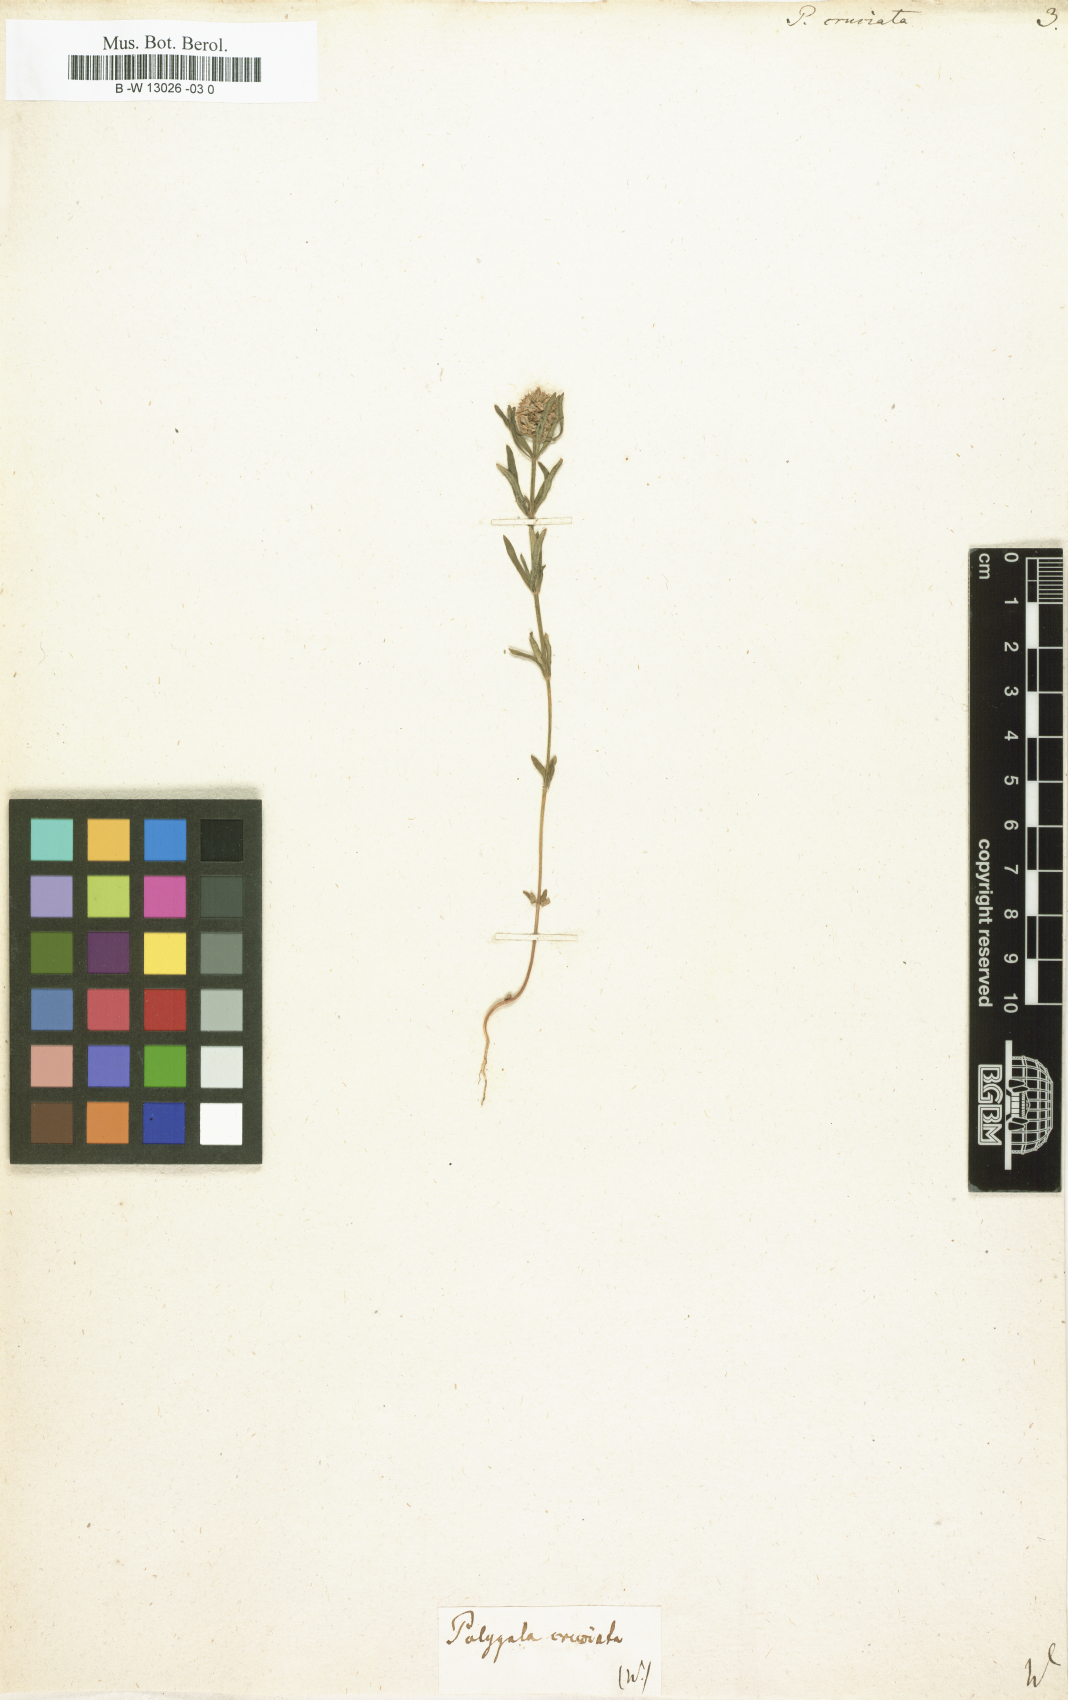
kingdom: Plantae
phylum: Tracheophyta
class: Magnoliopsida
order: Fabales
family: Polygalaceae
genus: Polygala
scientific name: Polygala cruciata
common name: Drumheads
